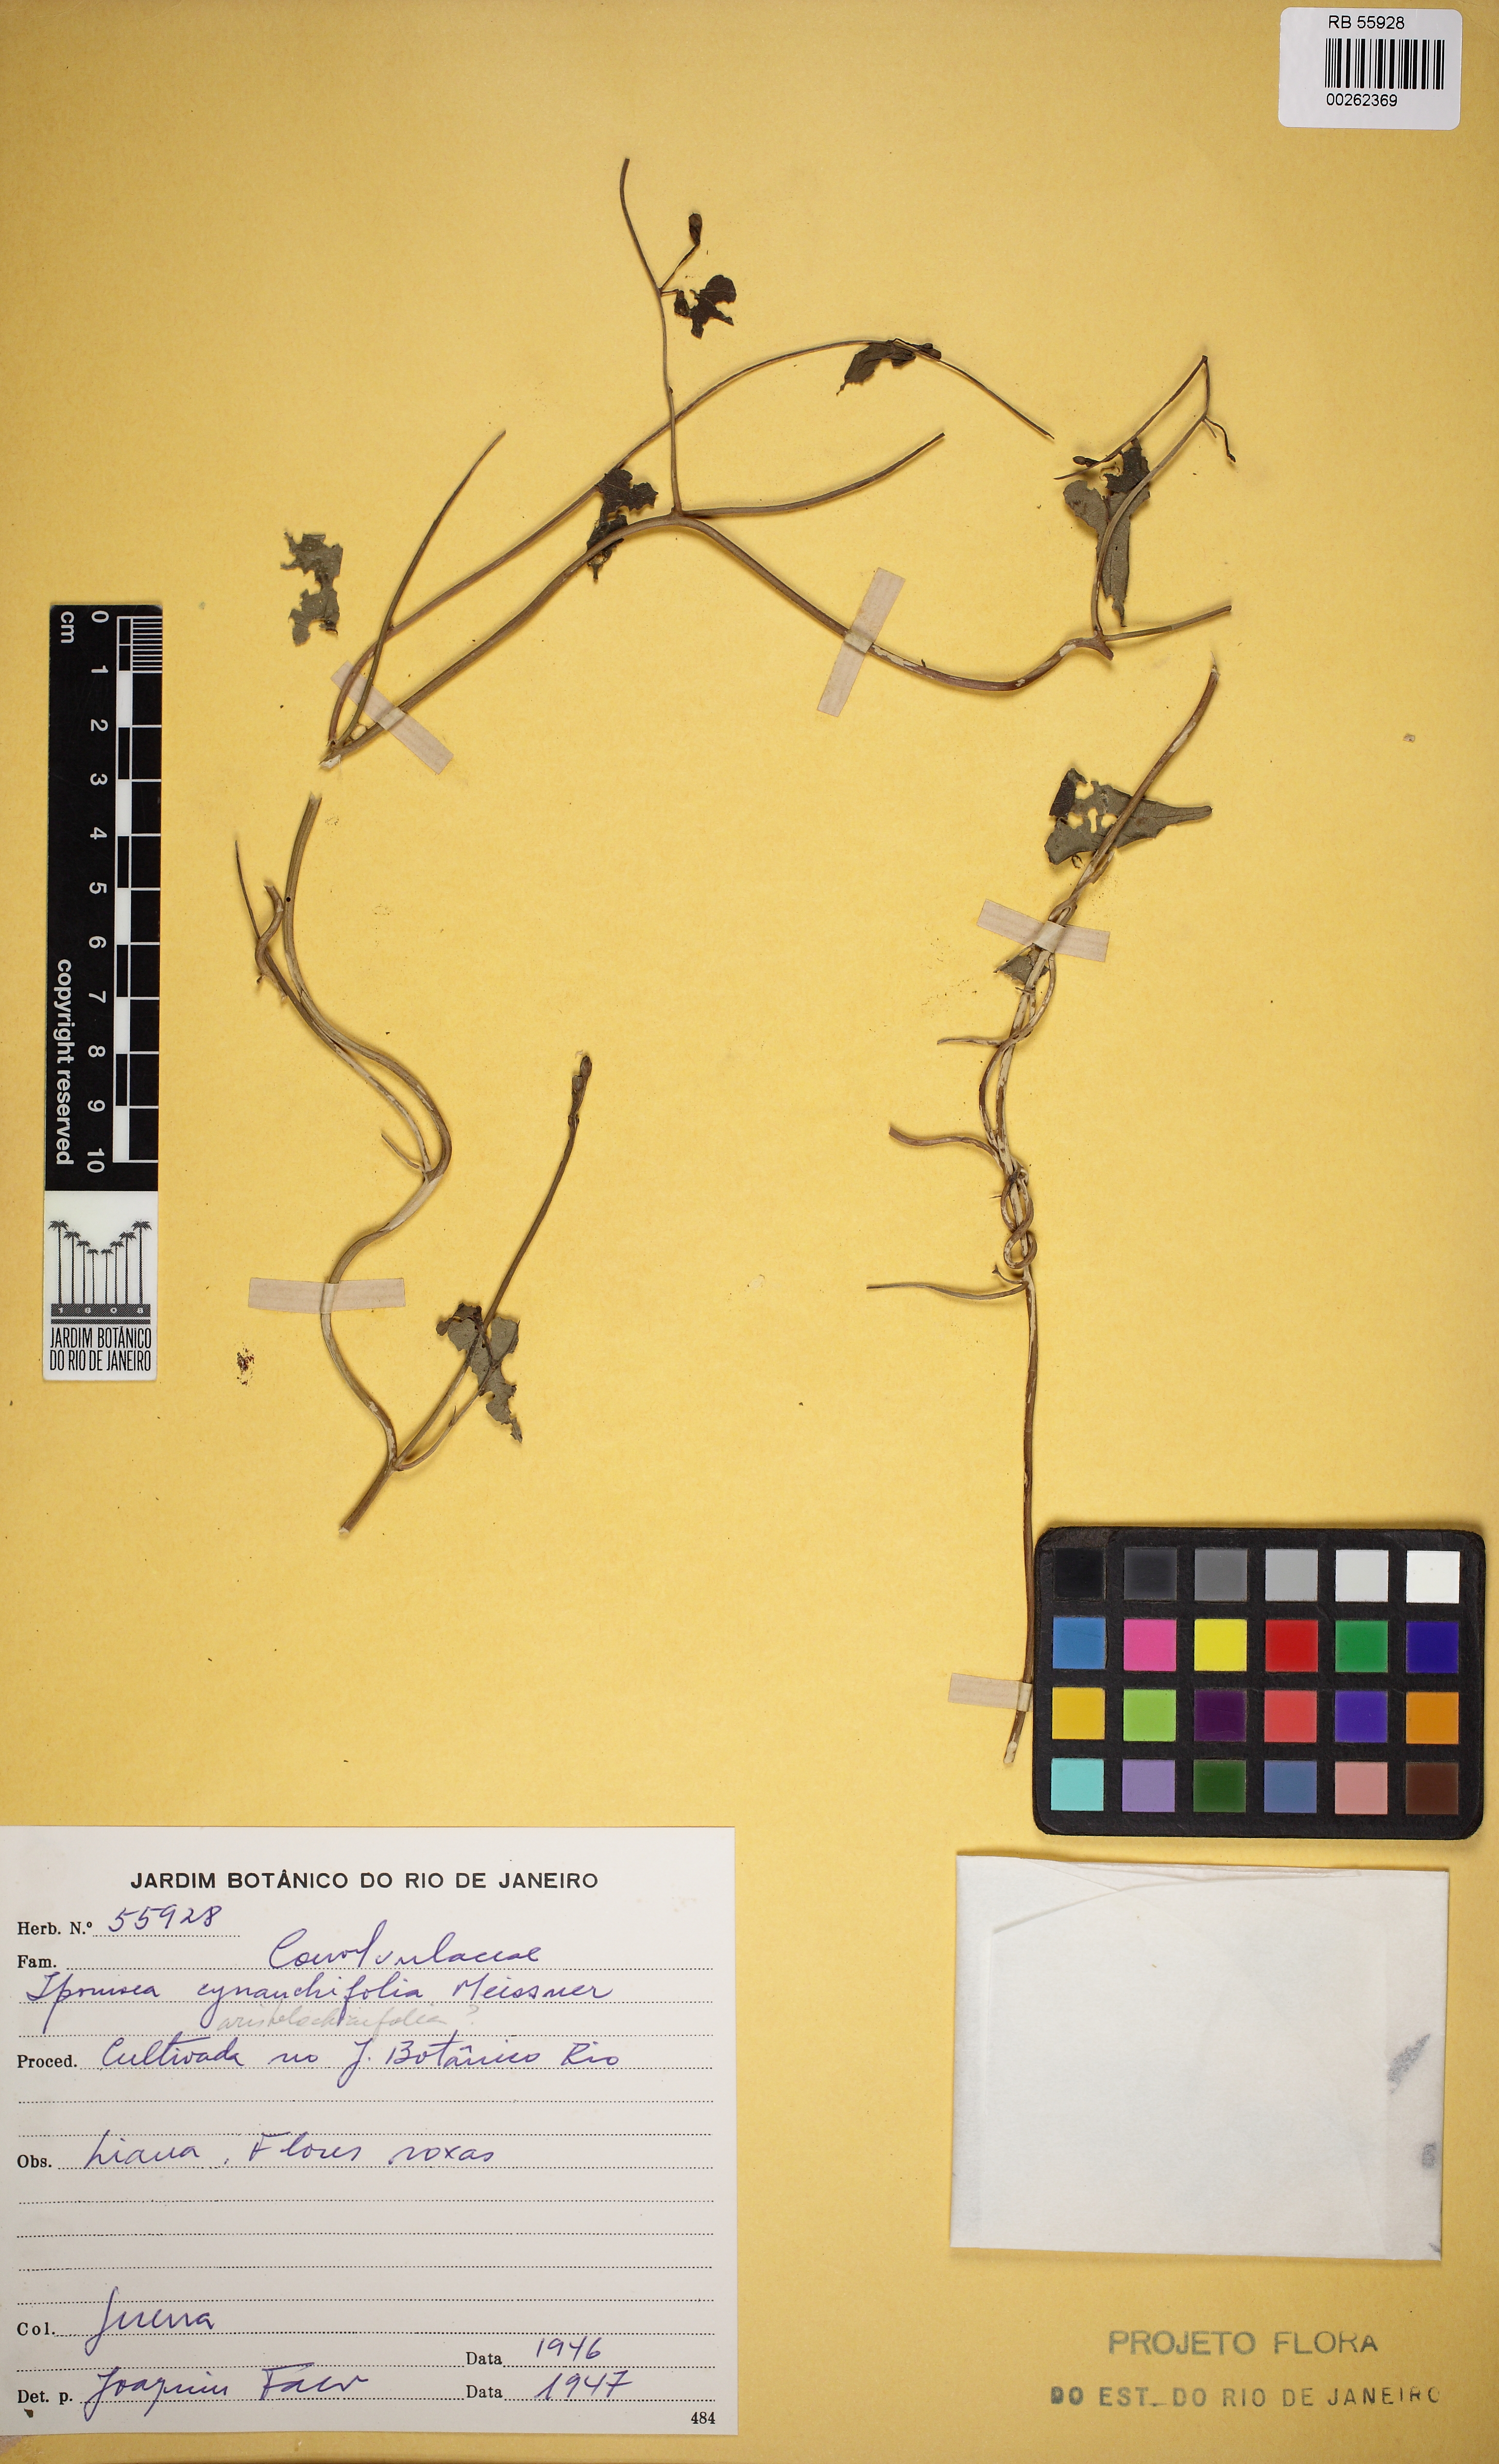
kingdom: Plantae
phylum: Tracheophyta
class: Magnoliopsida
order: Solanales
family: Convolvulaceae
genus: Ipomoea
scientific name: Ipomoea cynanchifolia
